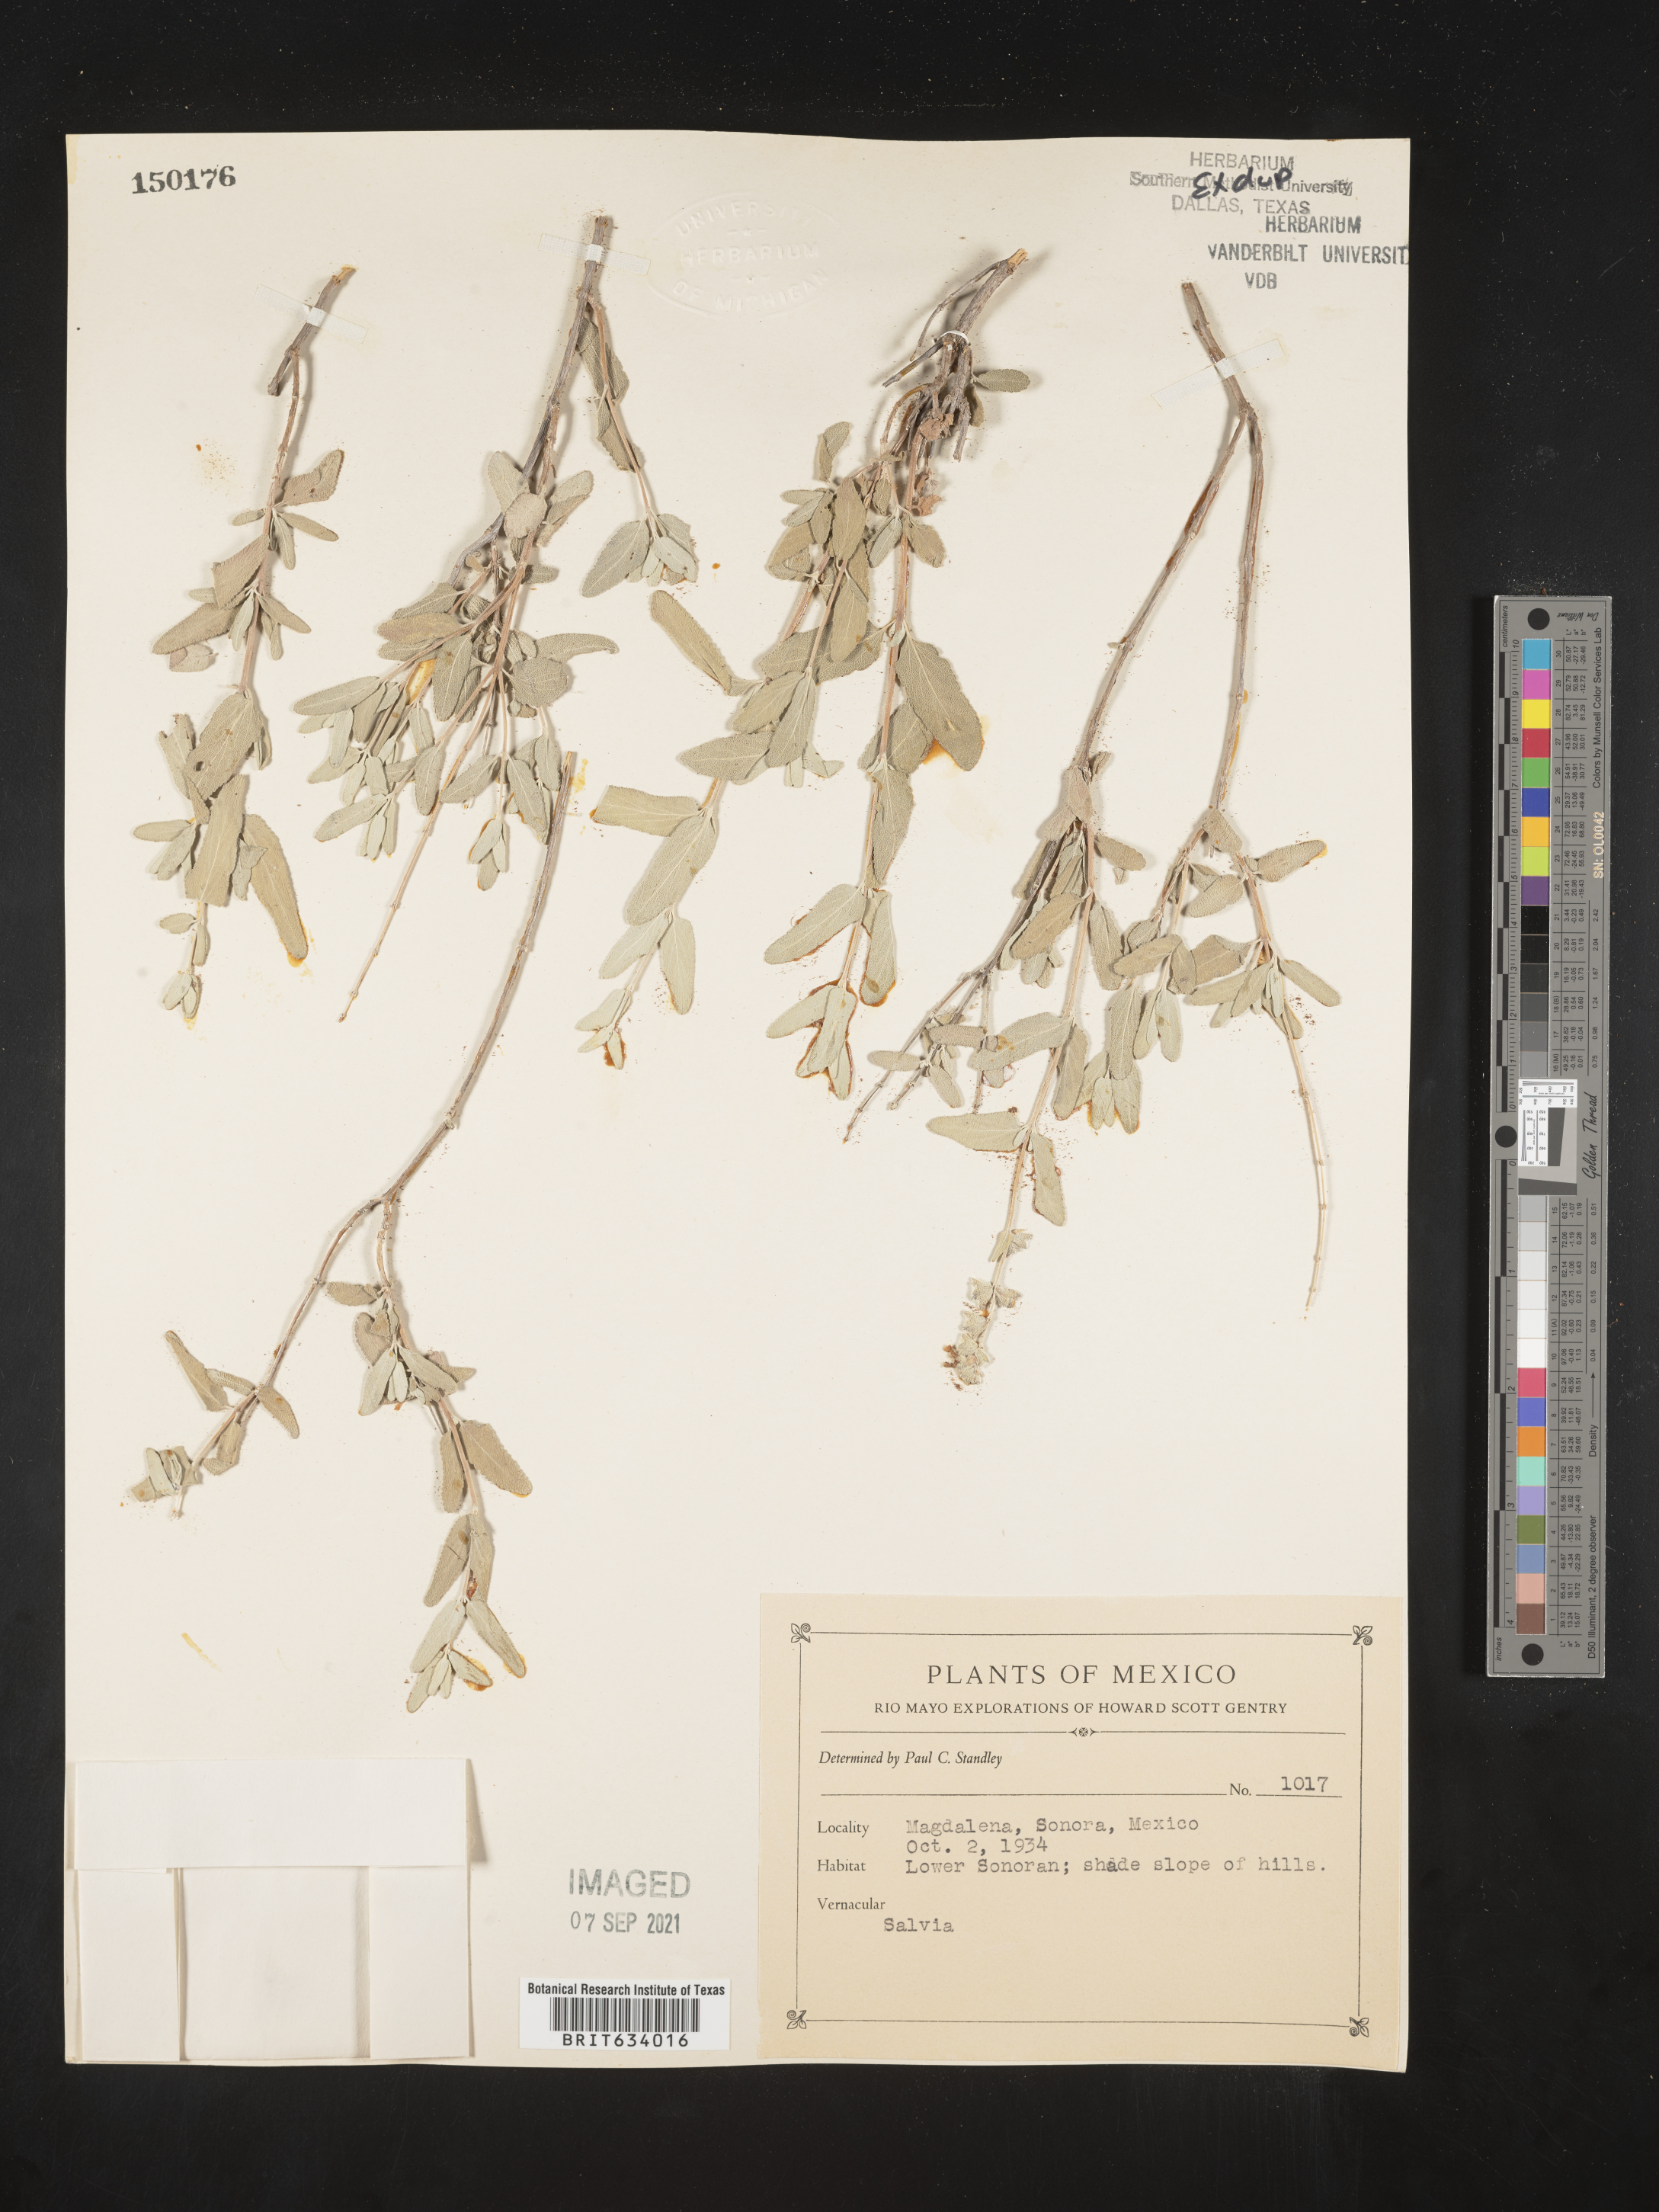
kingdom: Plantae
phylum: Tracheophyta
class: Magnoliopsida
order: Lamiales
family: Lamiaceae
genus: Salvia
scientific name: Salvia
